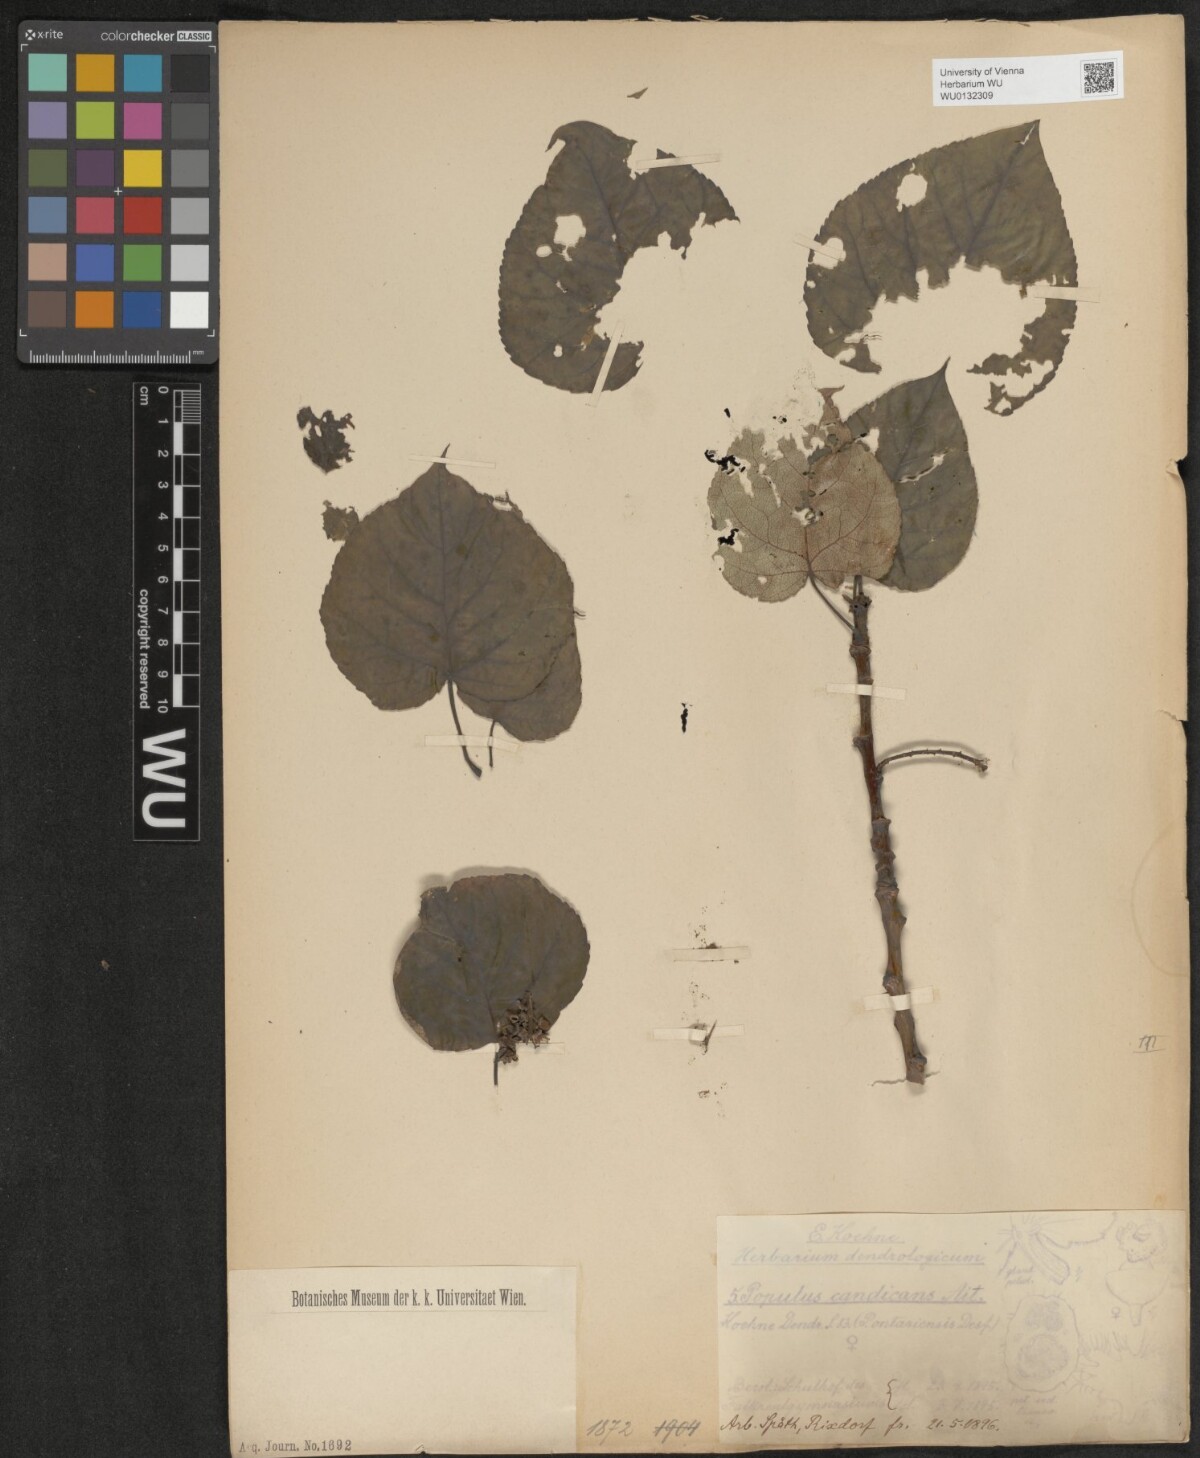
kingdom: Plantae
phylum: Tracheophyta
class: Magnoliopsida
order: Malpighiales
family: Salicaceae
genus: Populus
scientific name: Populus balsamifera
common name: Balsam poplar
